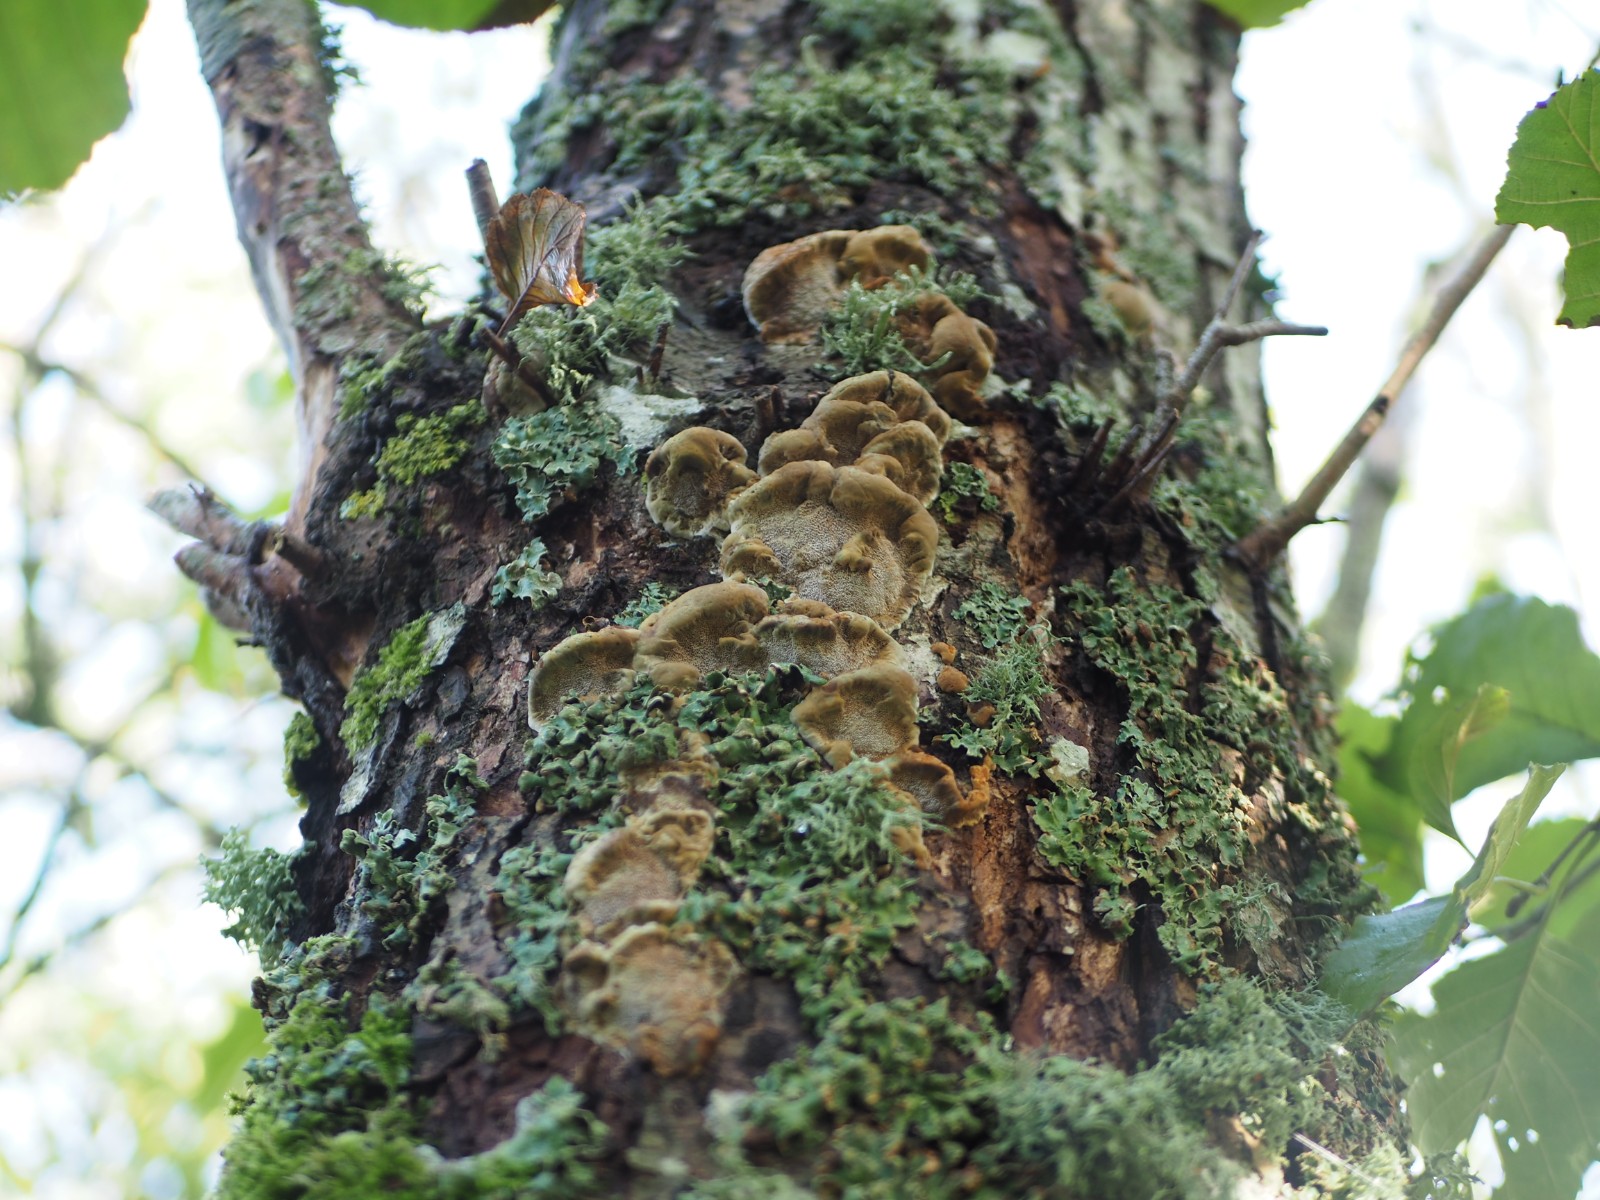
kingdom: Fungi
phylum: Basidiomycota
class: Agaricomycetes
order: Hymenochaetales
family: Hymenochaetaceae
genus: Xanthoporia
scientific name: Xanthoporia radiata
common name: elle-spejlporesvamp
